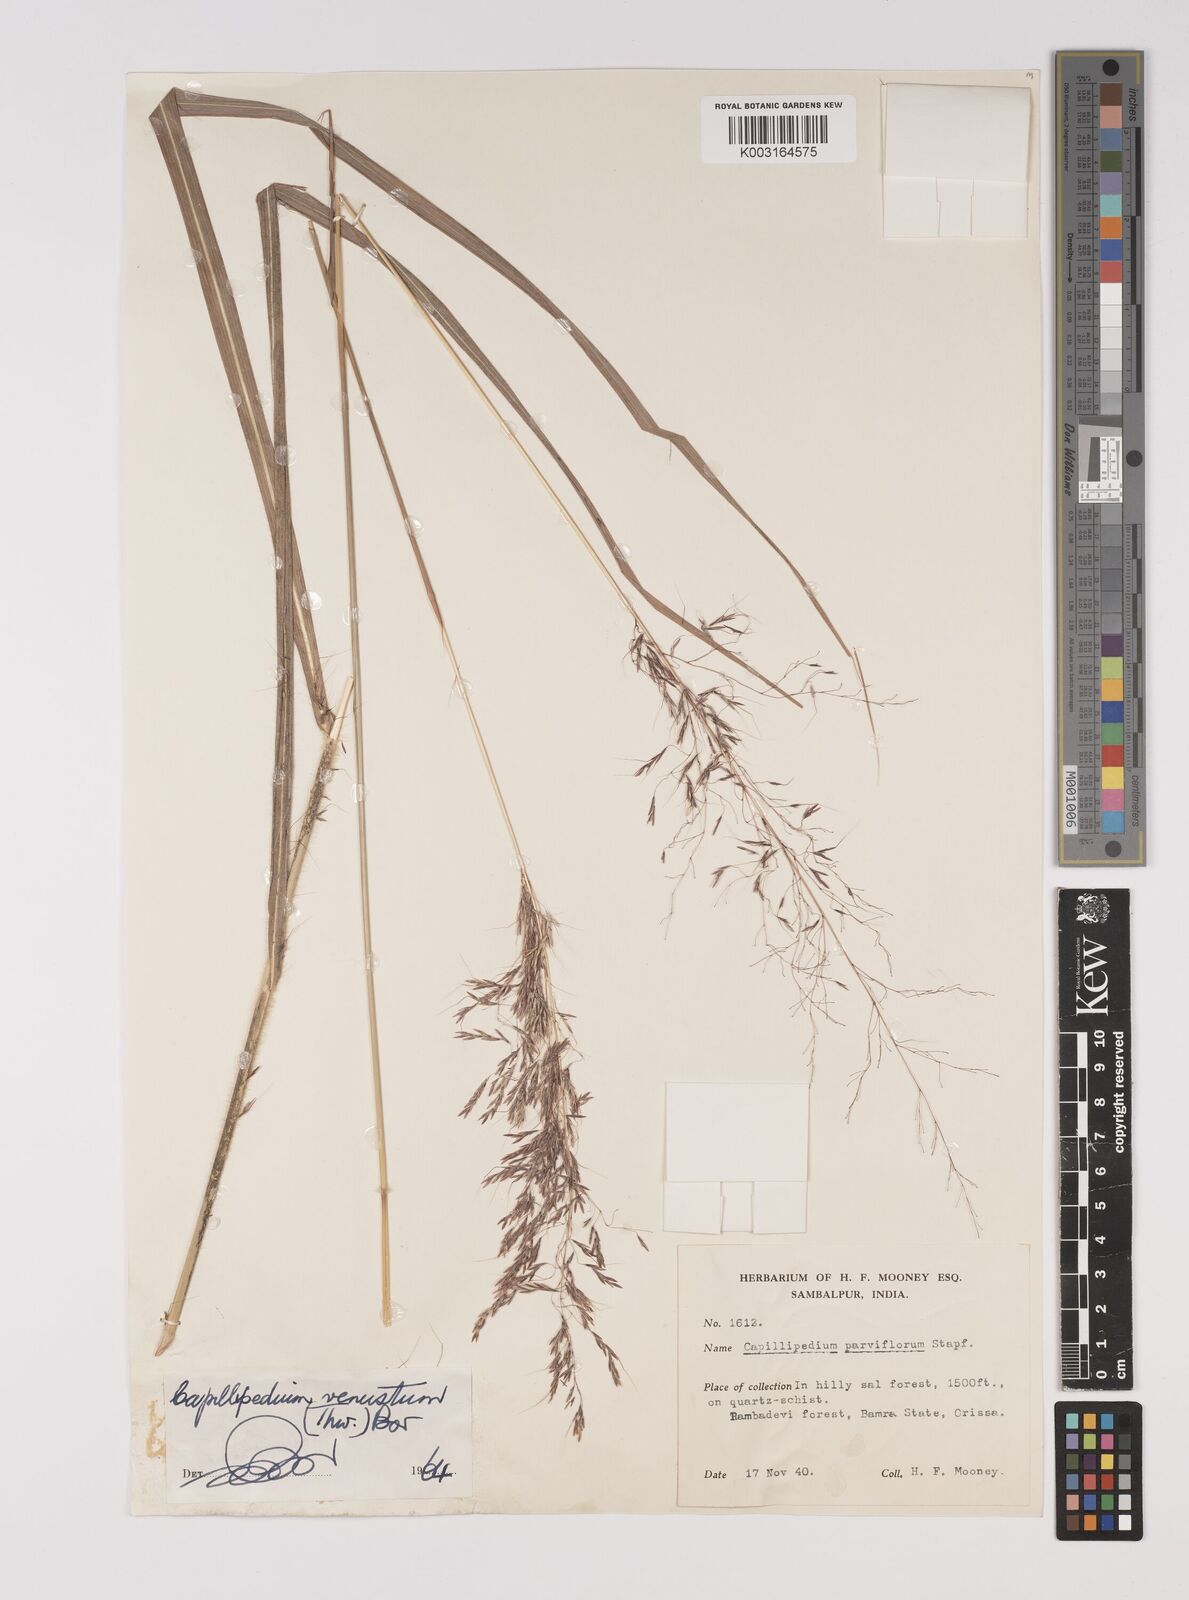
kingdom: Plantae
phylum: Tracheophyta
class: Liliopsida
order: Poales
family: Poaceae
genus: Capillipedium
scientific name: Capillipedium spicigerum
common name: Scented-top grass
